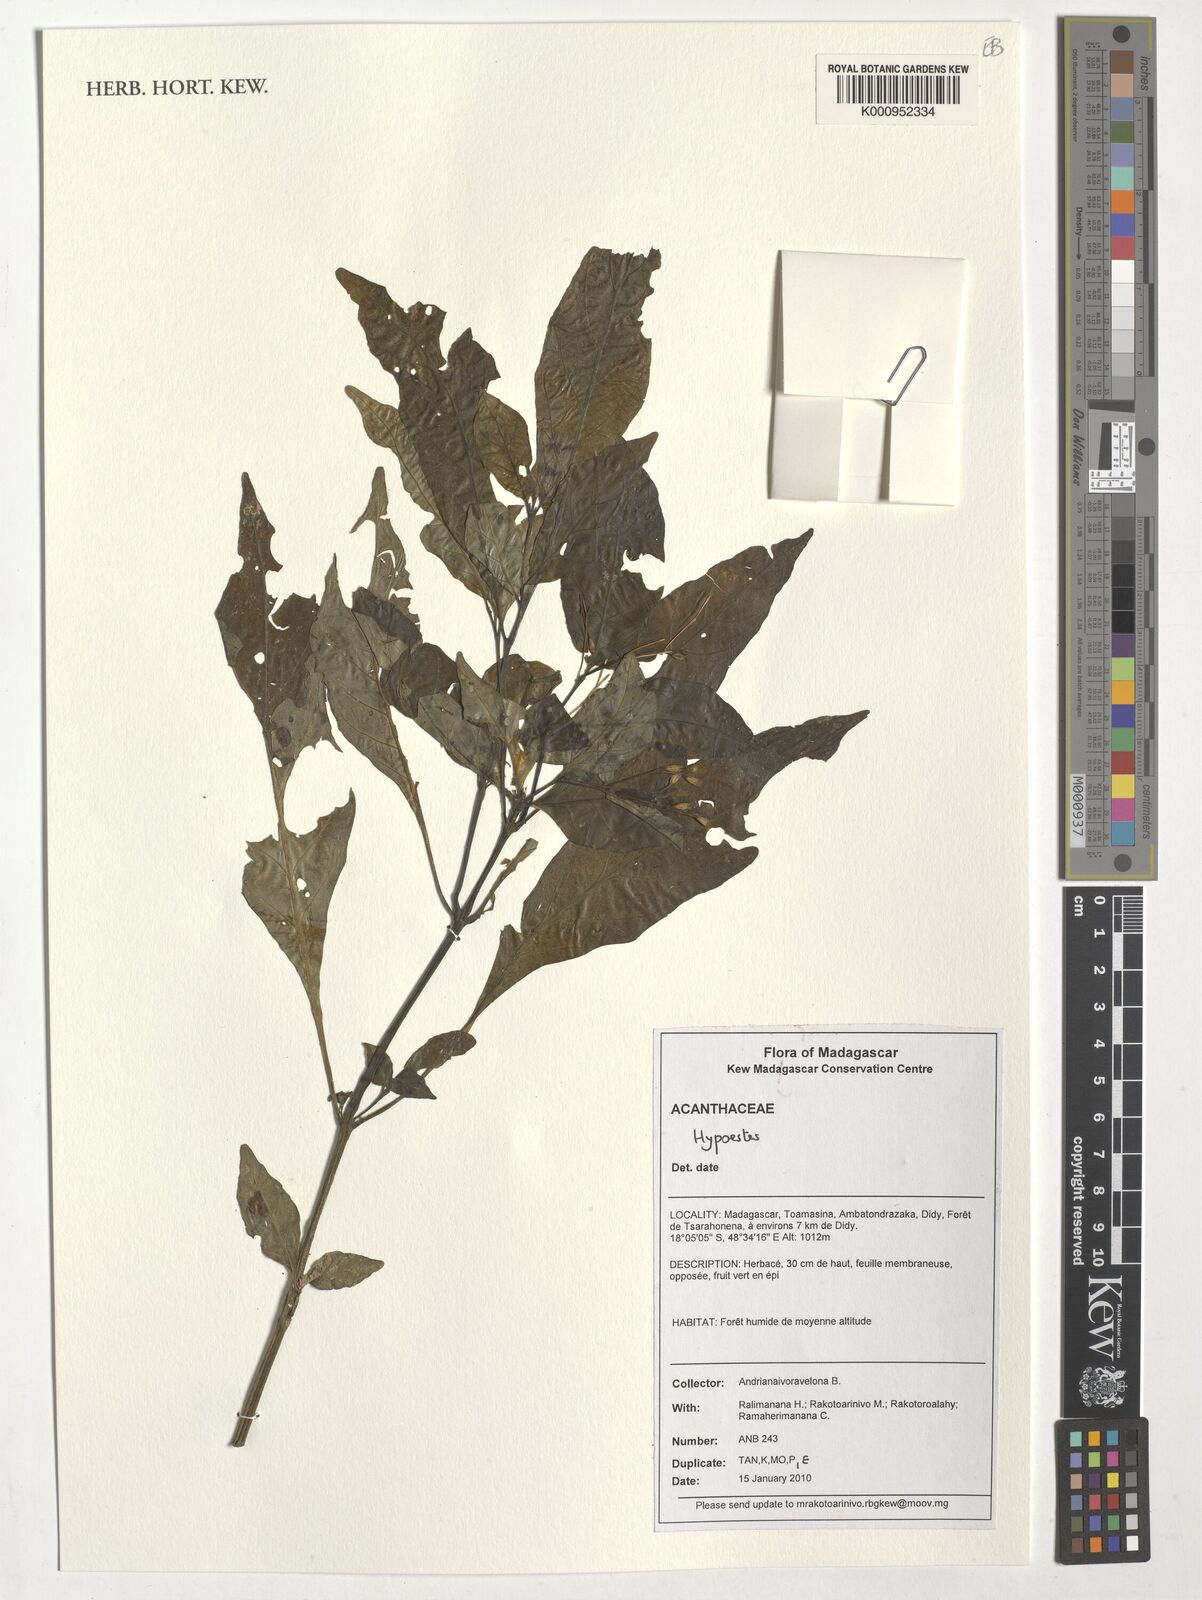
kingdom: Plantae
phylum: Tracheophyta
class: Magnoliopsida
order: Lamiales
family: Acanthaceae
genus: Hypoestes
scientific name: Hypoestes
